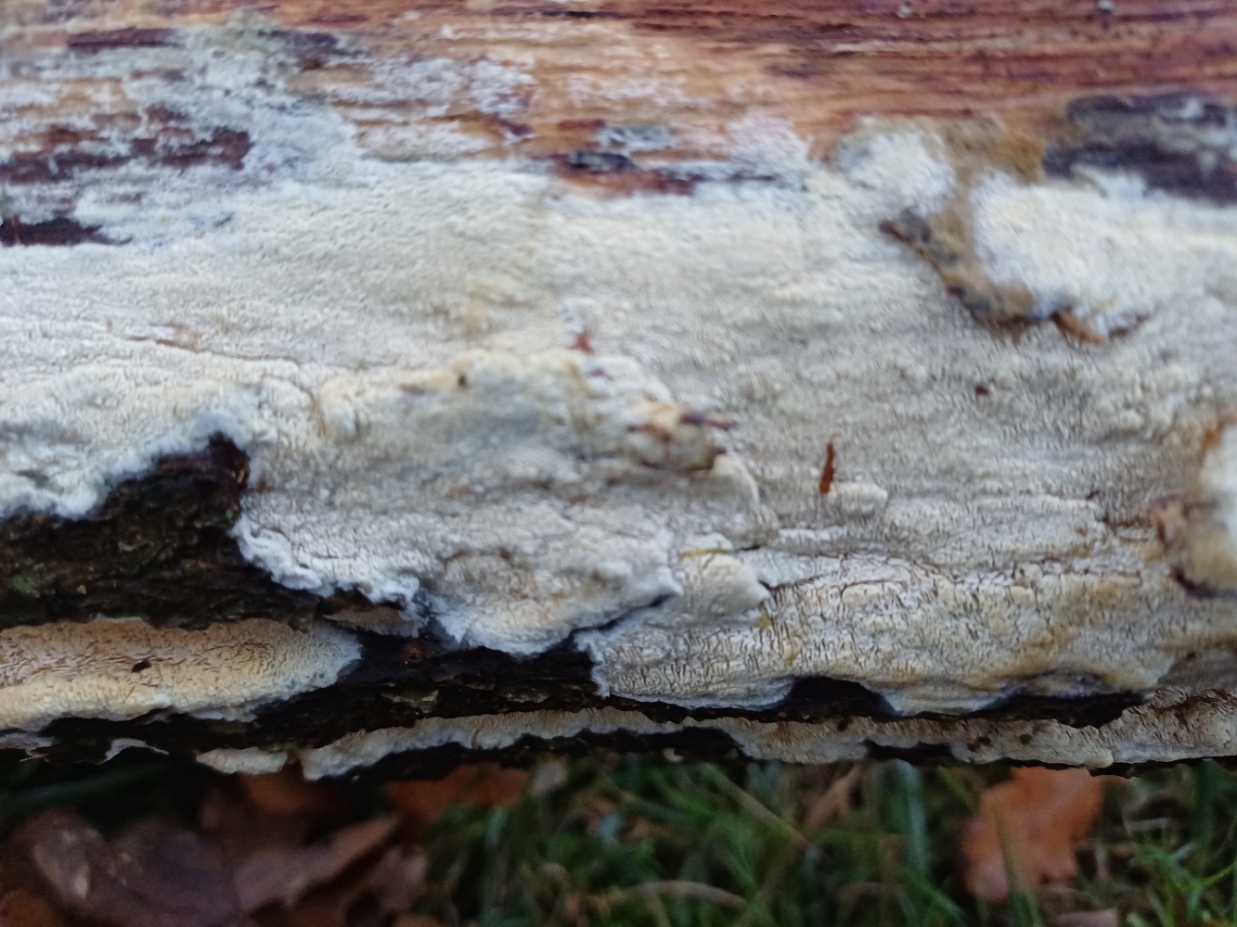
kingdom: Fungi
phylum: Basidiomycota
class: Agaricomycetes
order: Hymenochaetales
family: Schizoporaceae
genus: Xylodon
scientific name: Xylodon subtropicus
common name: labyrint-tandsvamp
